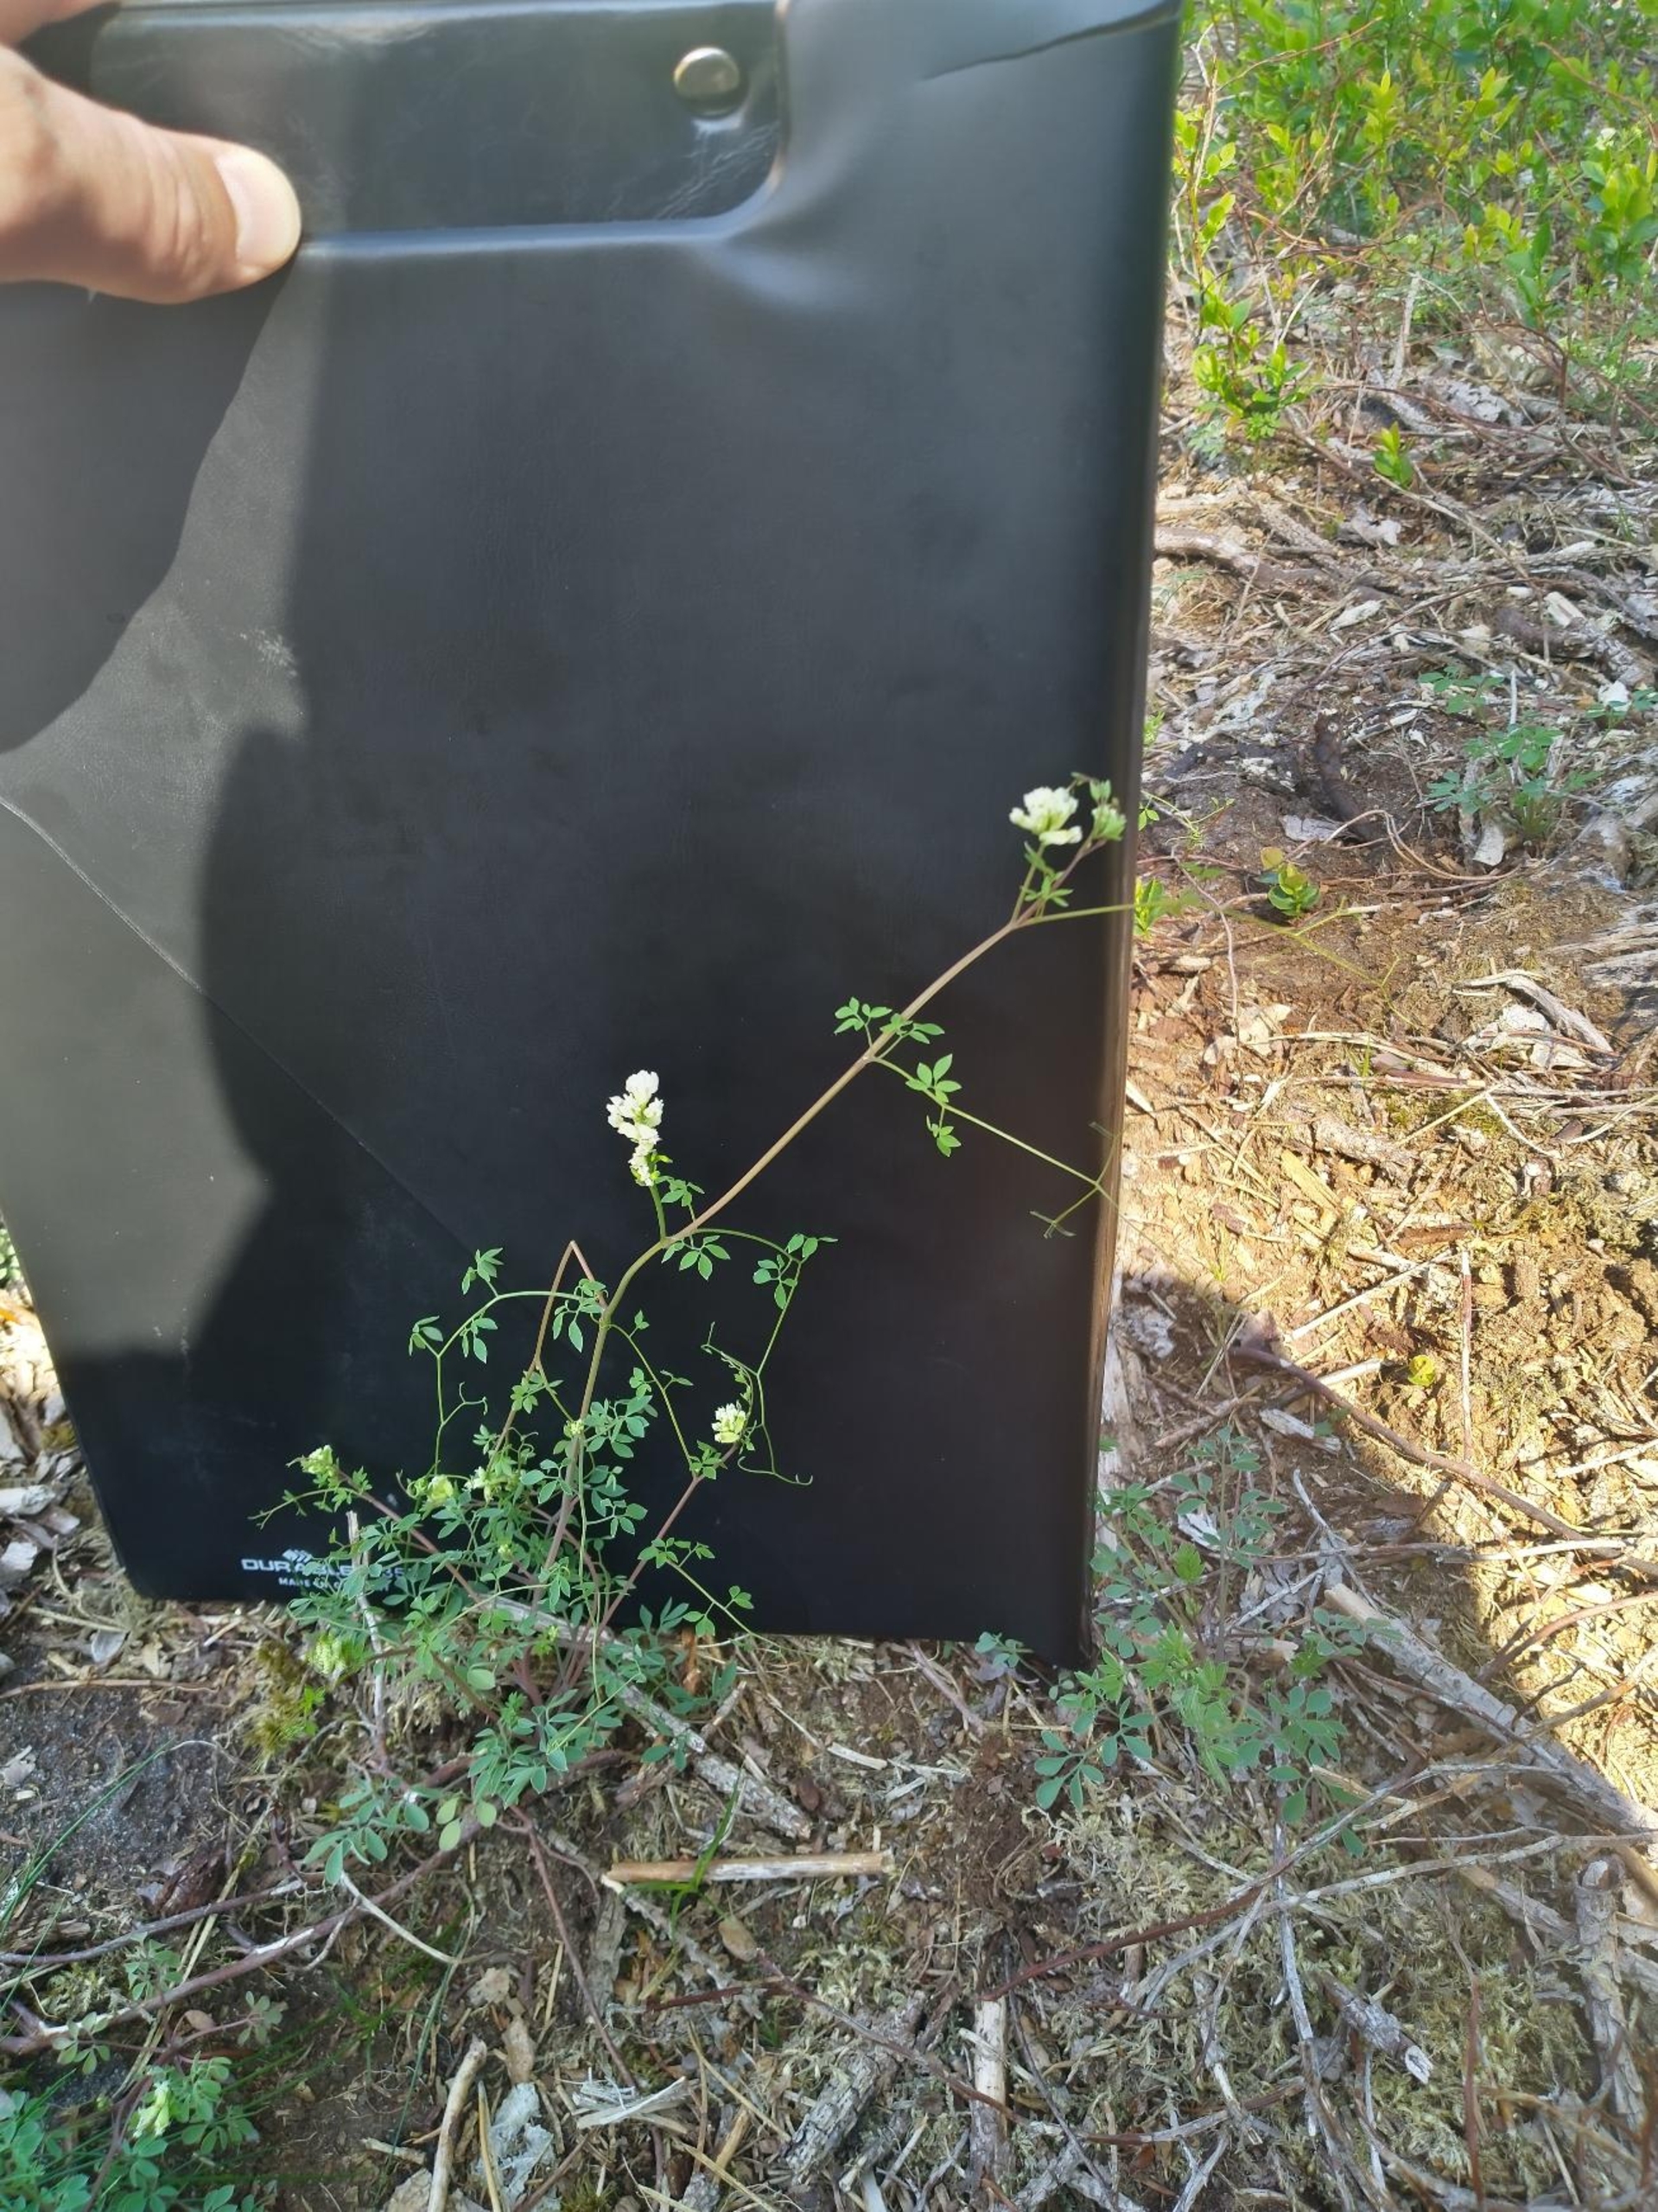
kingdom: Plantae
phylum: Tracheophyta
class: Magnoliopsida
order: Ranunculales
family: Papaveraceae
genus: Ceratocapnos
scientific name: Ceratocapnos claviculata
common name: Klatrende lærkespore
